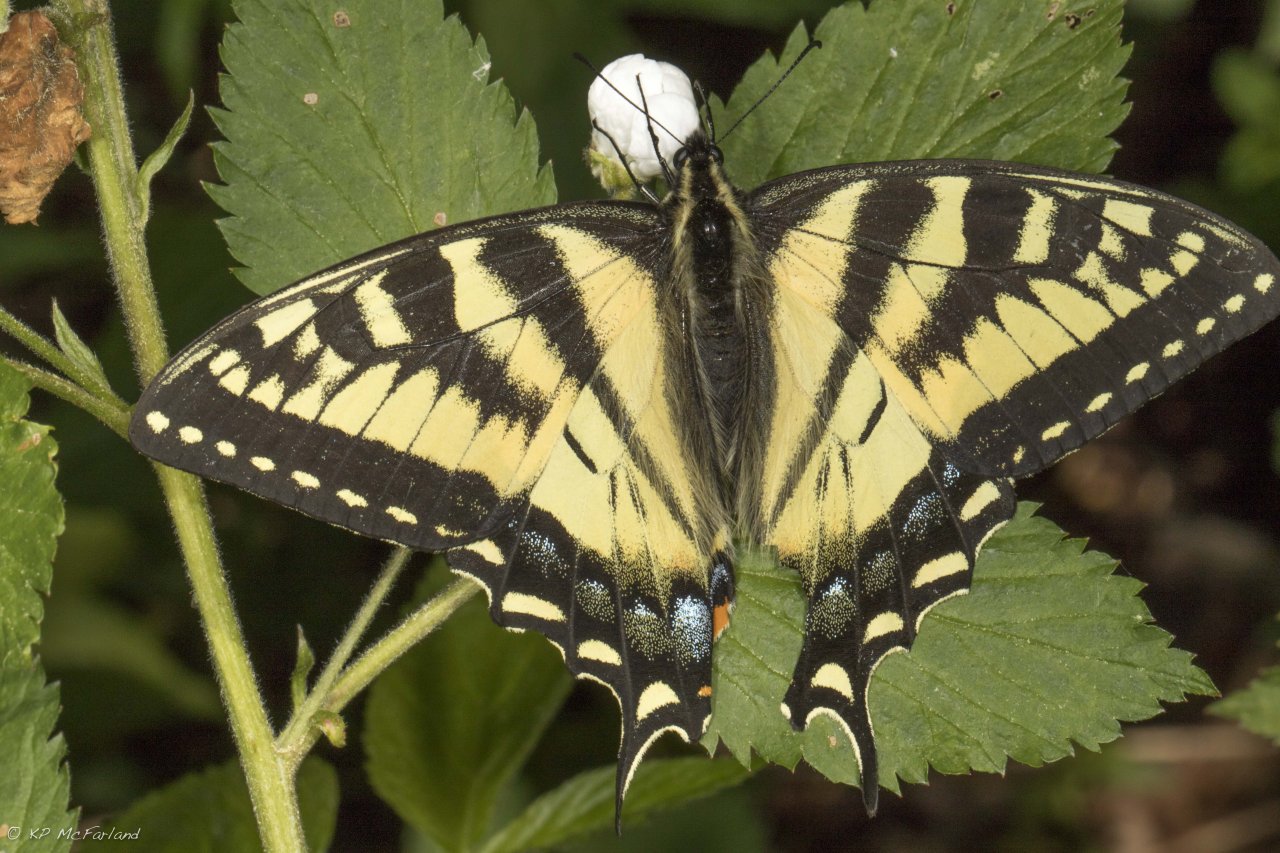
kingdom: Animalia
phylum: Arthropoda
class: Insecta
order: Lepidoptera
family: Papilionidae
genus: Pterourus
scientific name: Pterourus canadensis
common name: Canadian Tiger Swallowtail
